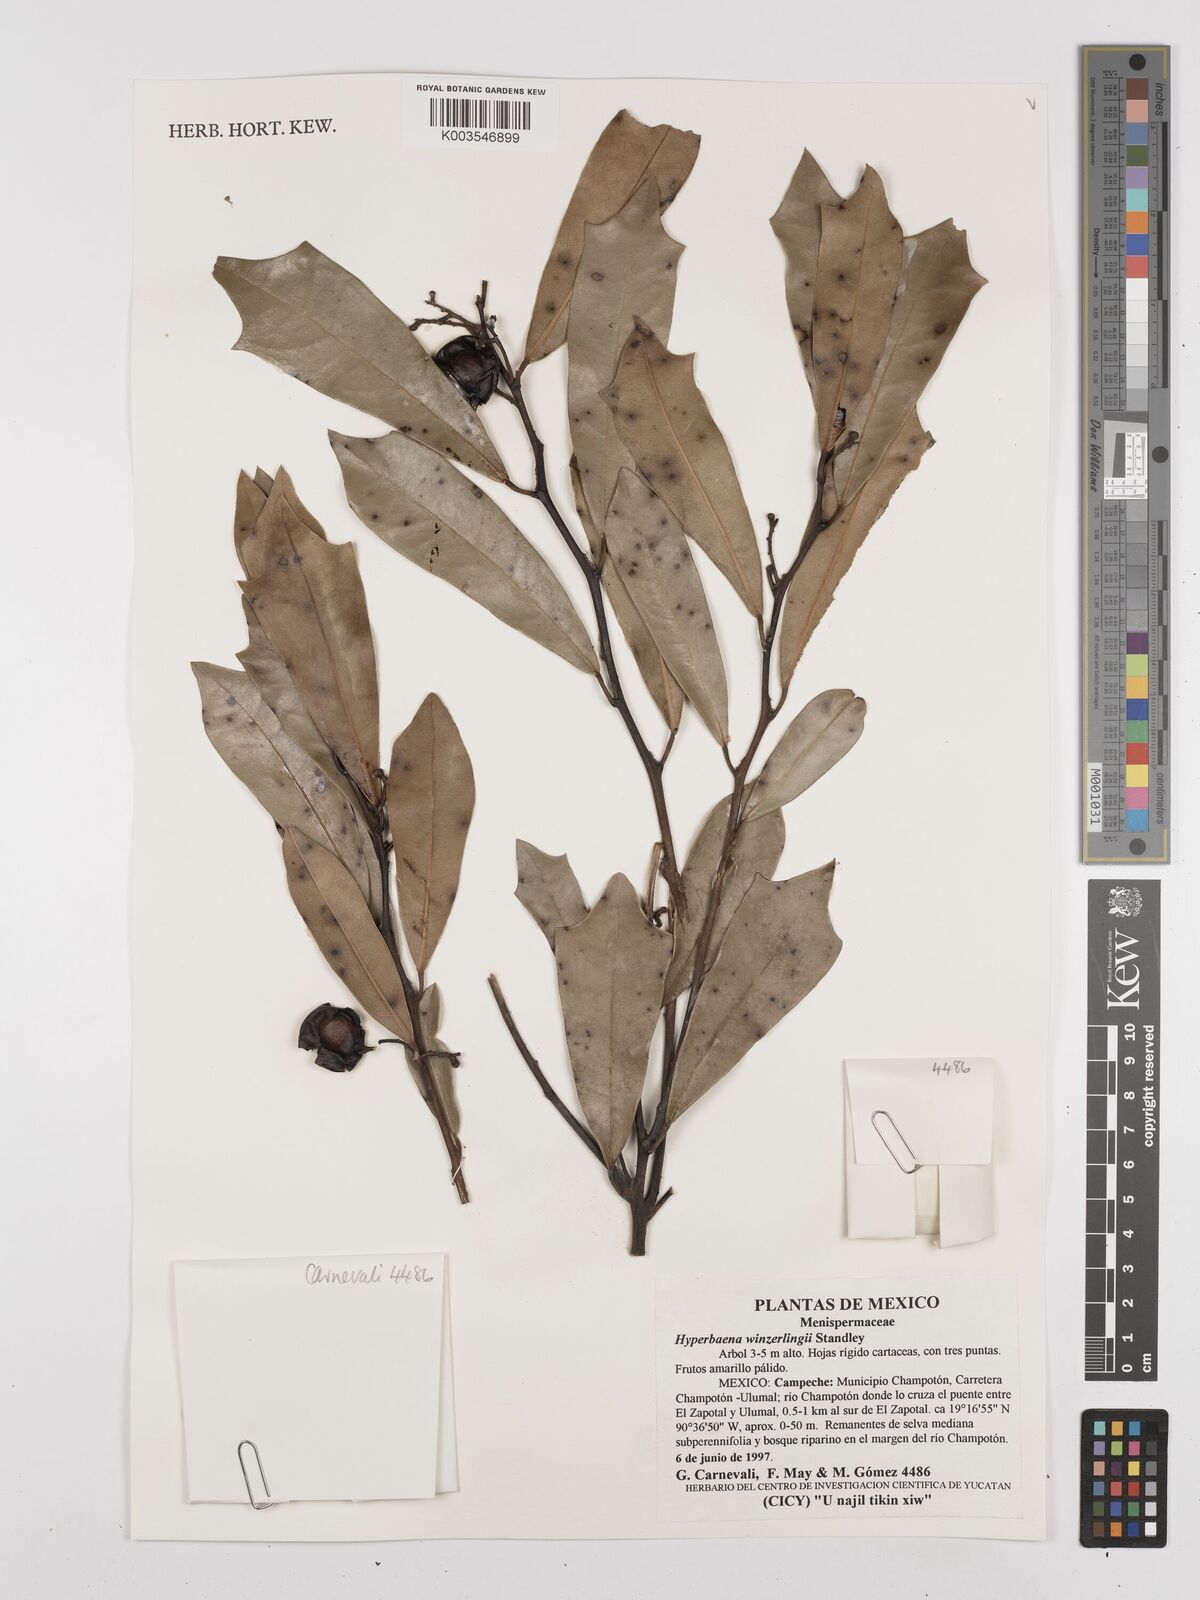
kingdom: Plantae
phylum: Tracheophyta
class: Magnoliopsida
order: Ranunculales
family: Menispermaceae
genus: Hyperbaena
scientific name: Hyperbaena winzerlingii
